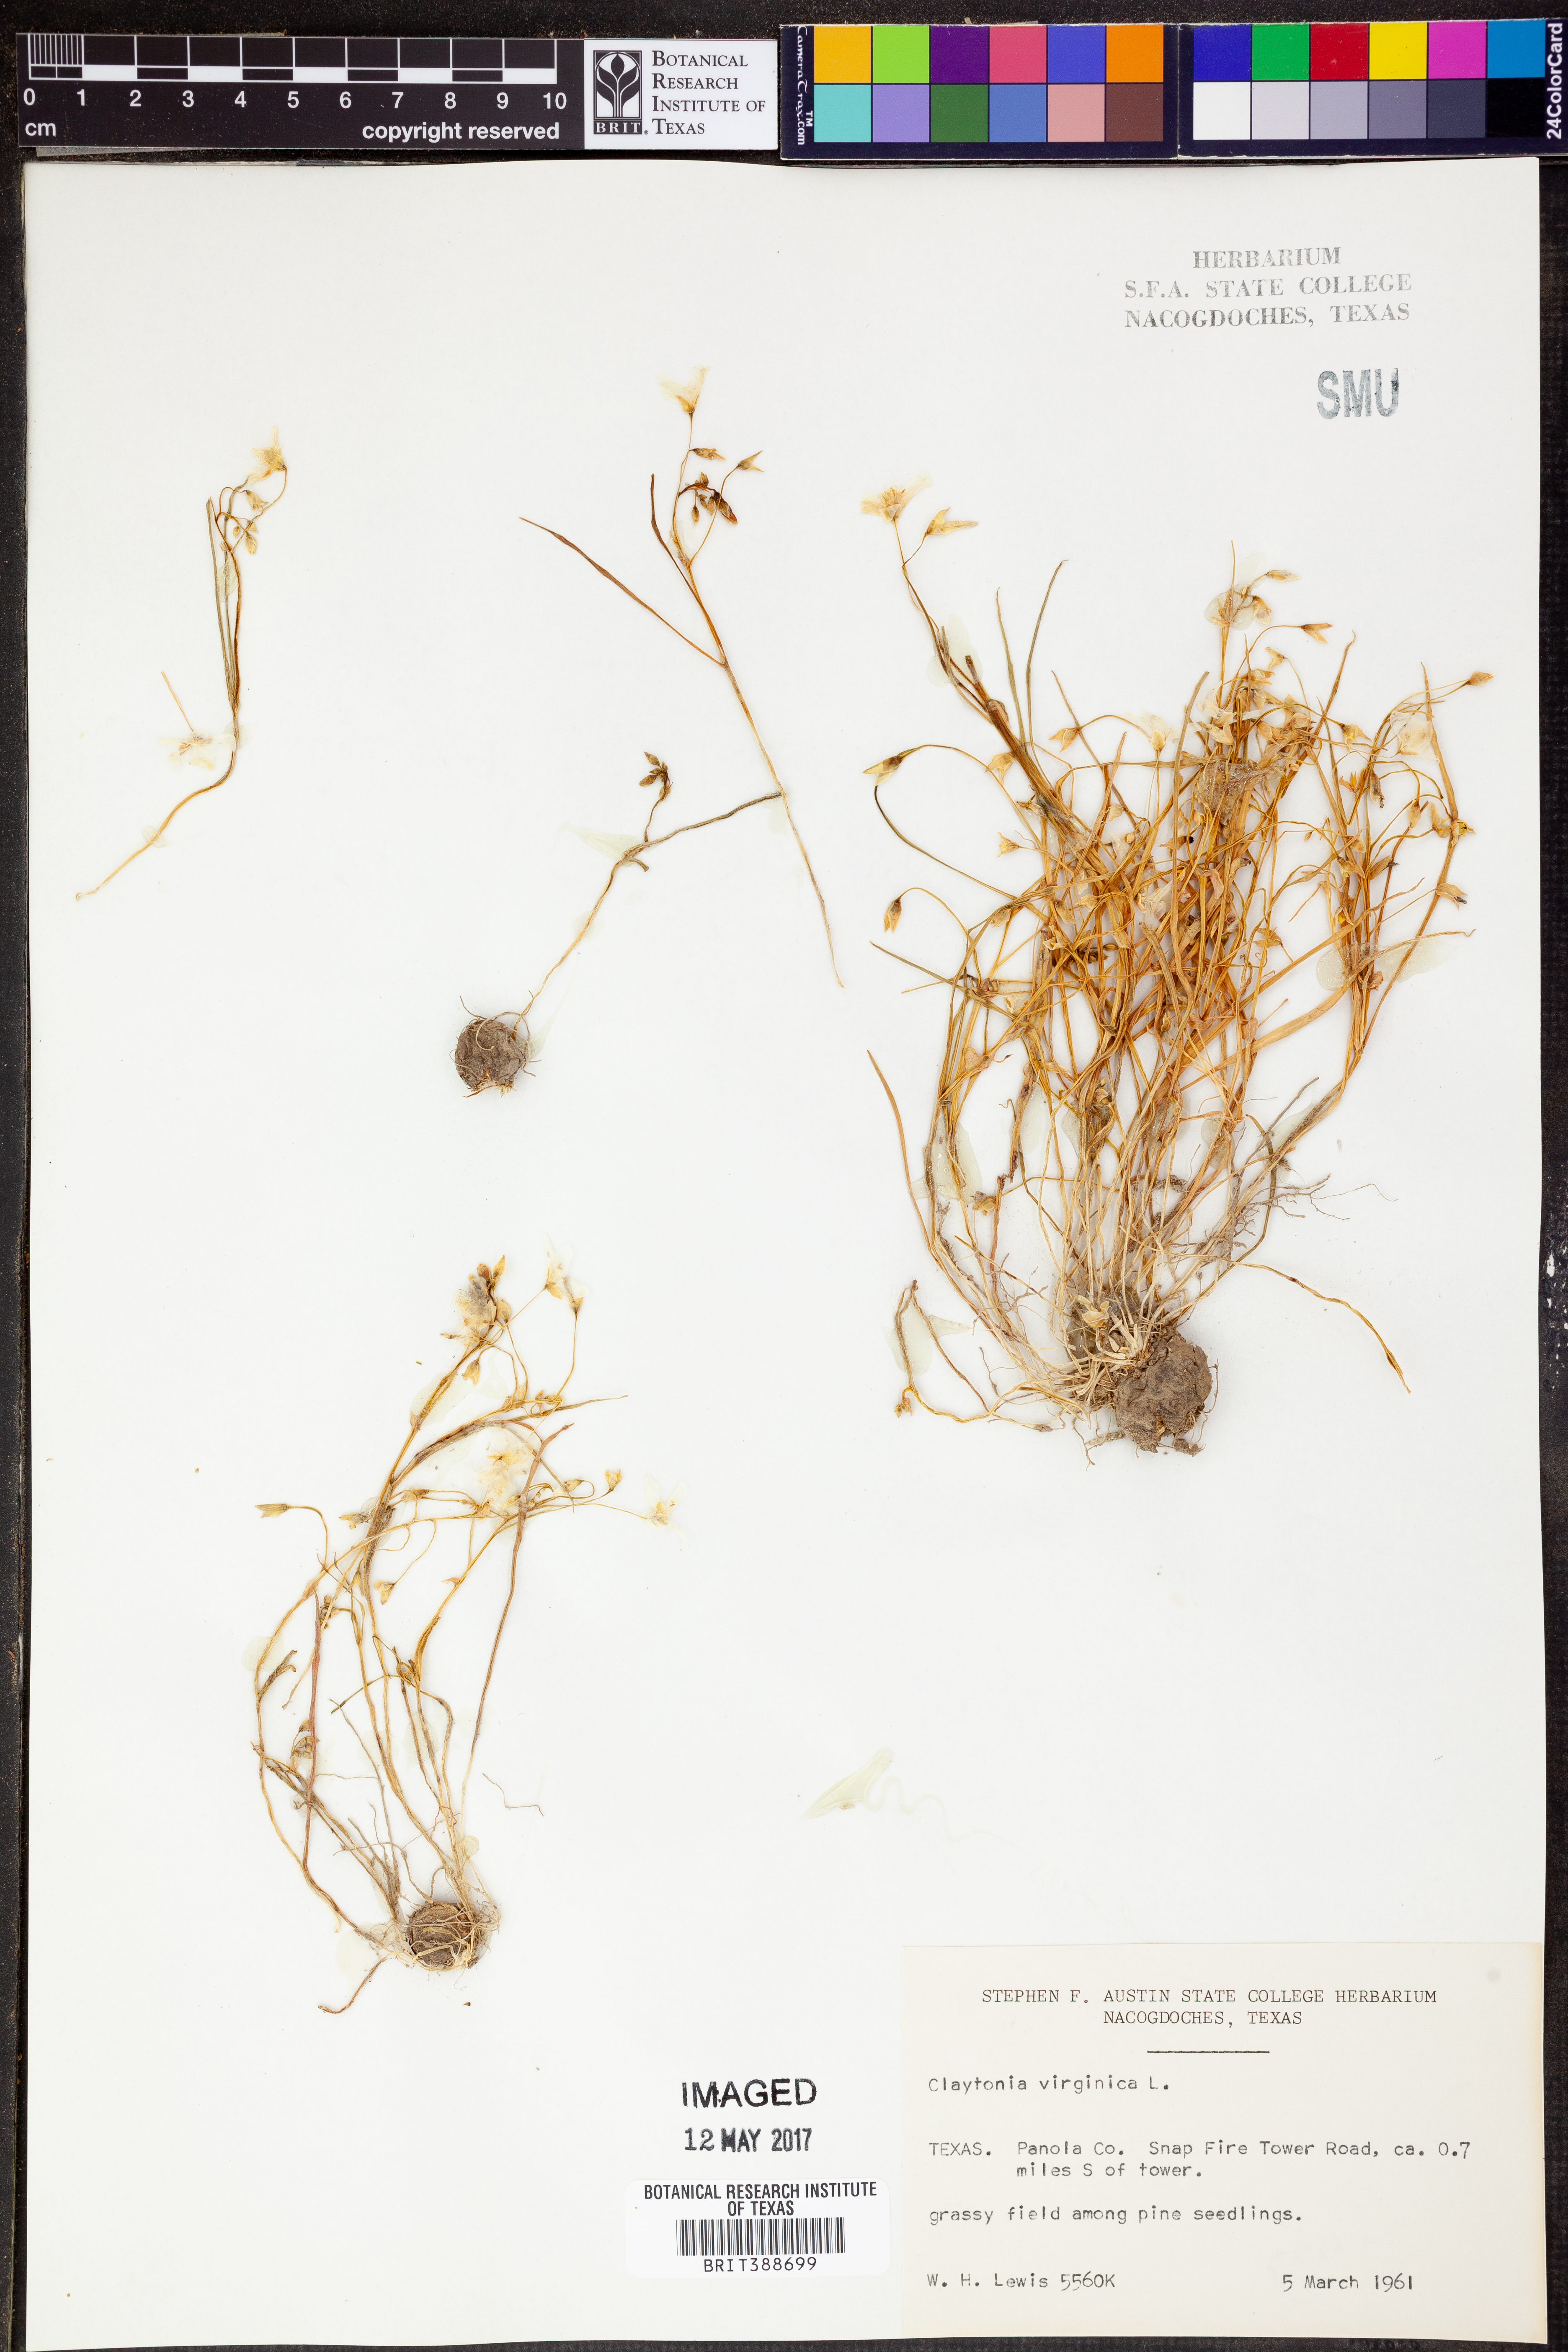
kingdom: Plantae
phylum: Tracheophyta
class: Magnoliopsida
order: Caryophyllales
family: Montiaceae
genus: Claytonia
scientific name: Claytonia virginica
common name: Virginia springbeauty
